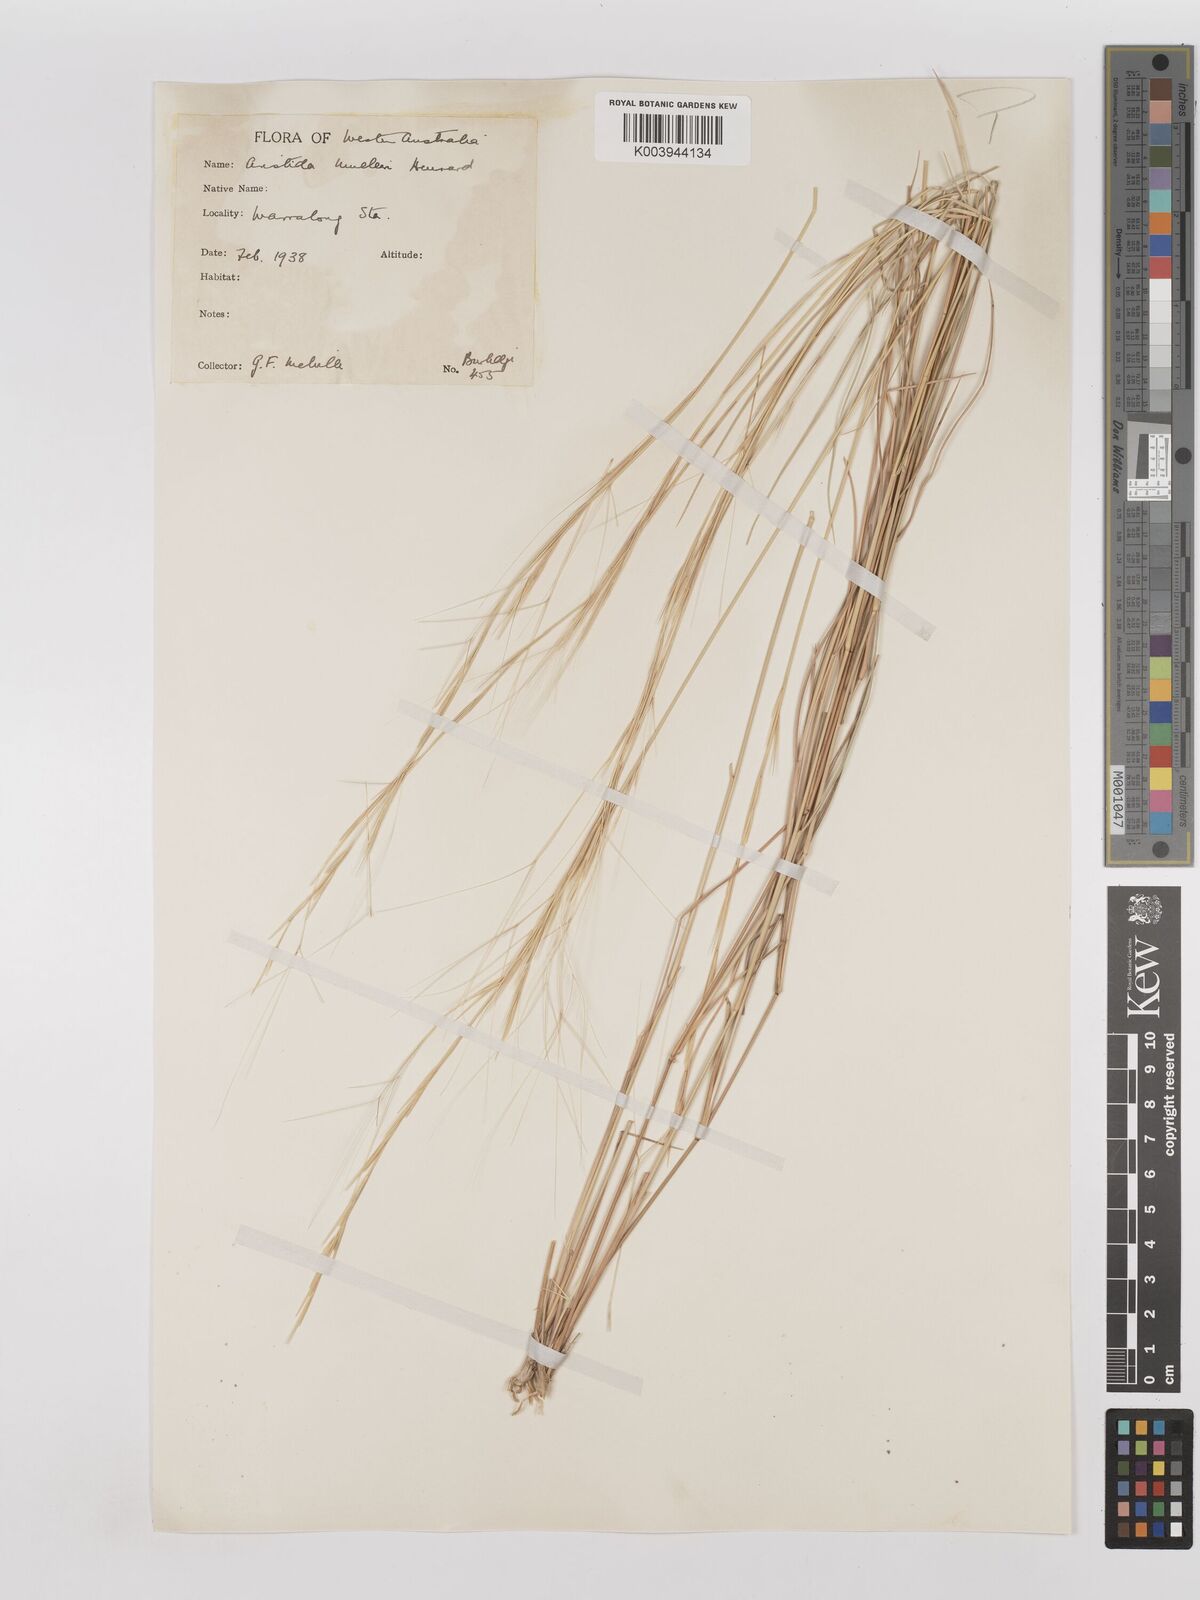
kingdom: Plantae
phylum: Tracheophyta
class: Liliopsida
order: Poales
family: Poaceae
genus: Aristida
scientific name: Aristida holathera
